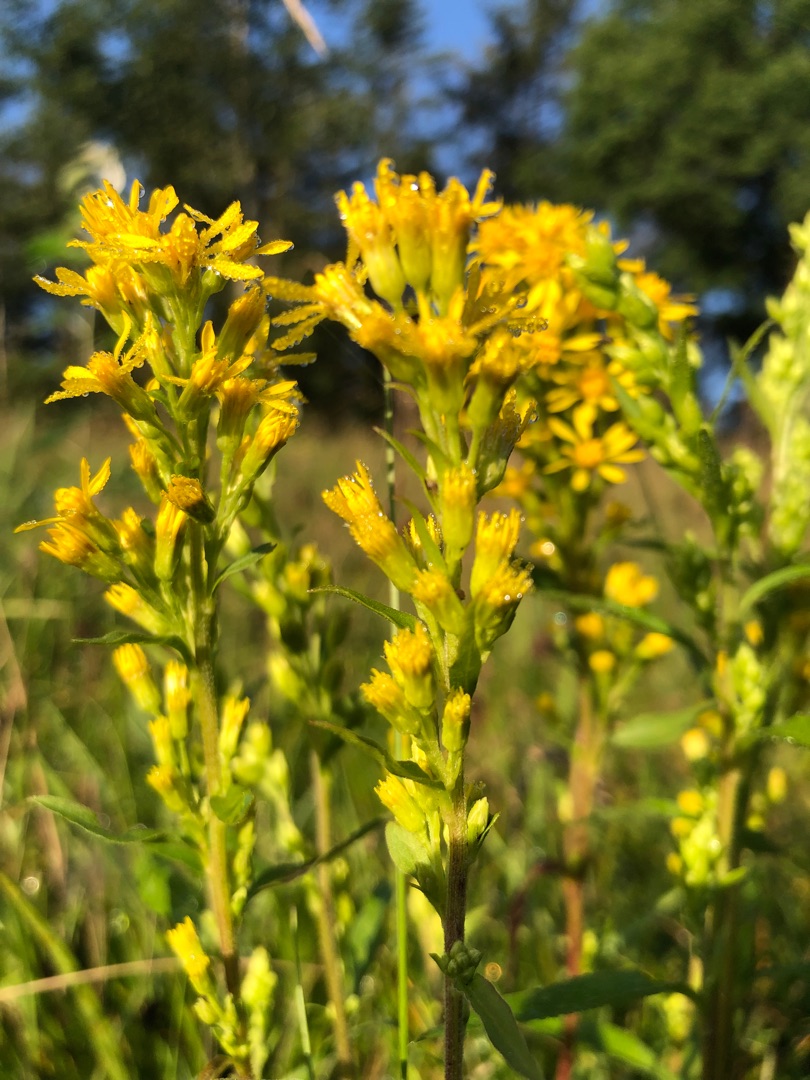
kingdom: Plantae
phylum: Tracheophyta
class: Magnoliopsida
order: Asterales
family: Asteraceae
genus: Solidago
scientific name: Solidago virgaurea
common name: Almindelig gyldenris
